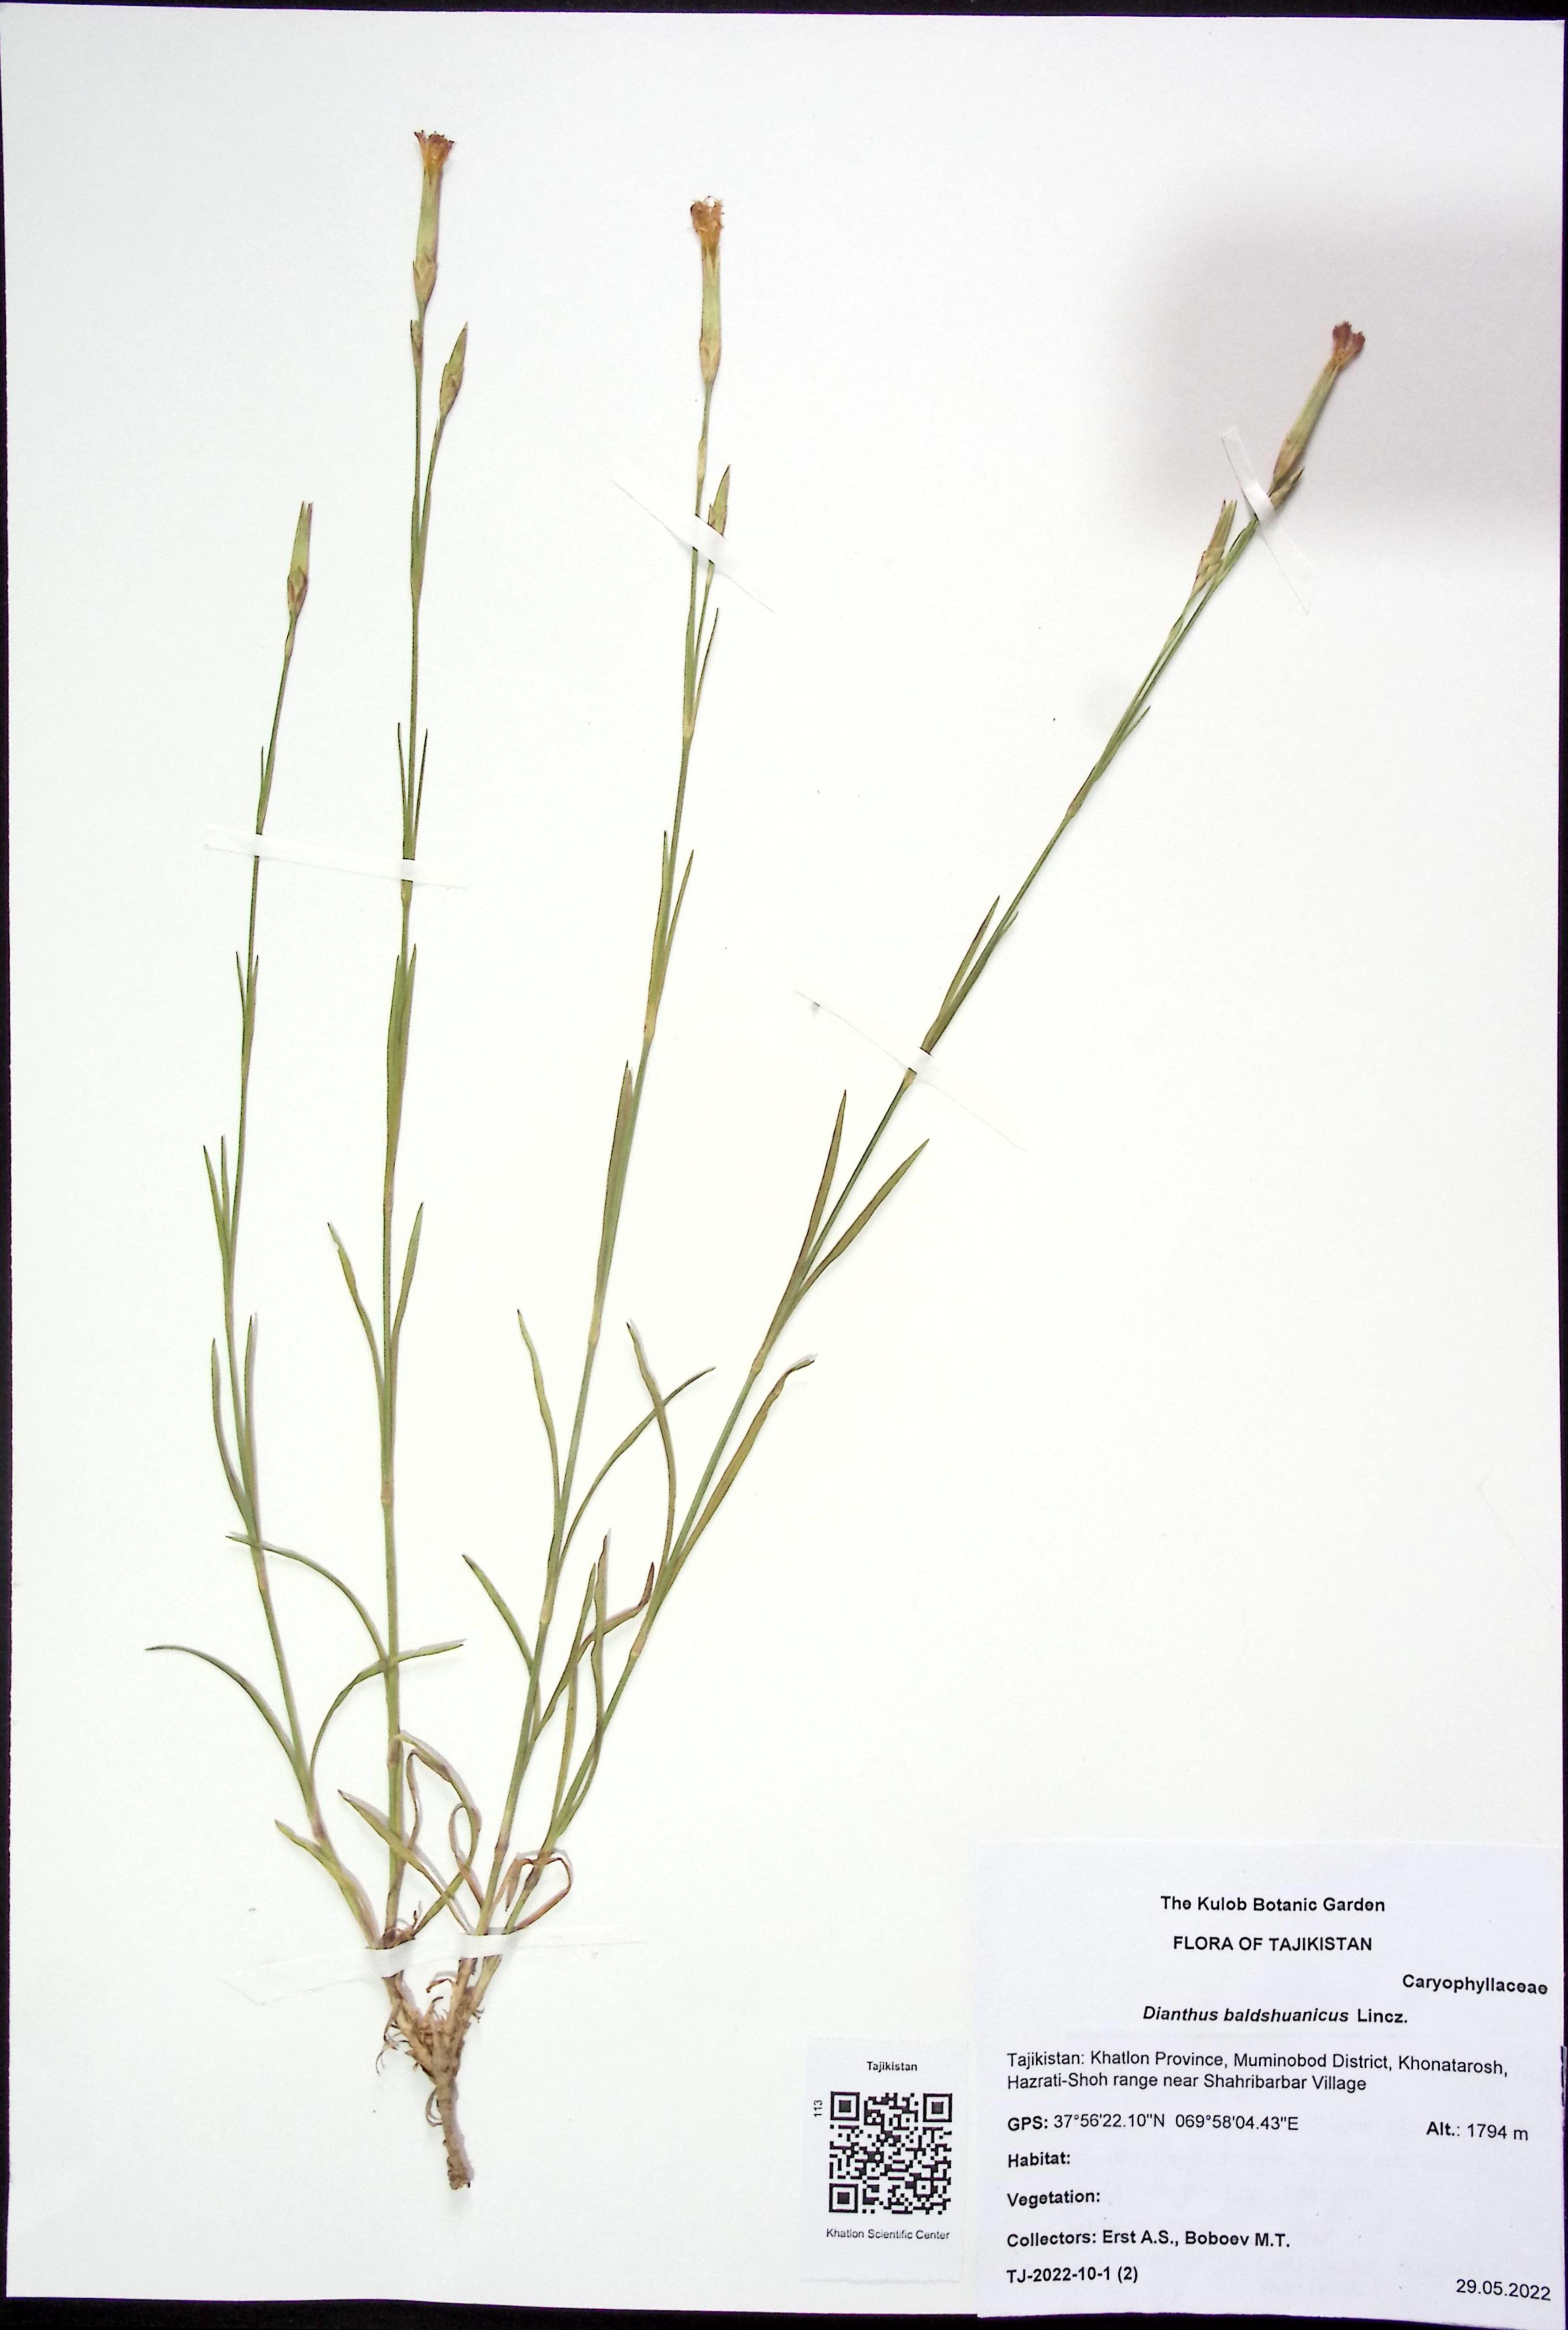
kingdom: Plantae
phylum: Tracheophyta
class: Magnoliopsida
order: Caryophyllales
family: Caryophyllaceae
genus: Dianthus
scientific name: Dianthus crinitus
